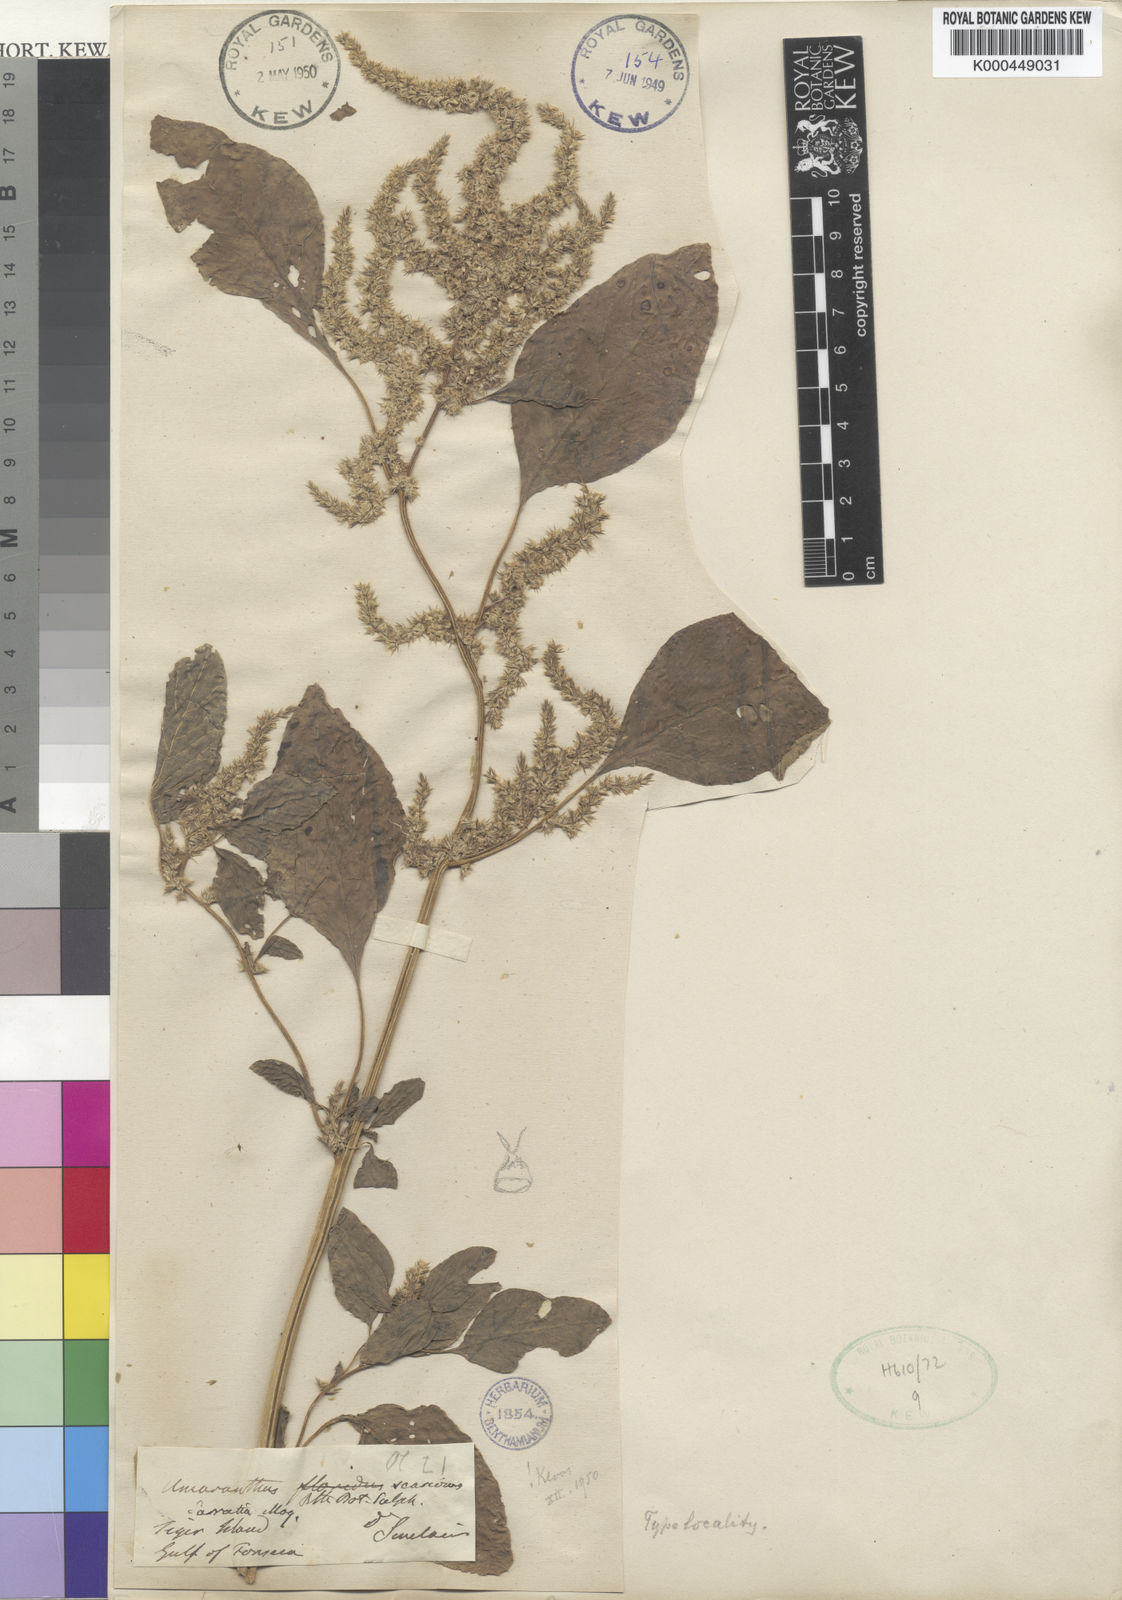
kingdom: Plantae
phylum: Tracheophyta
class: Magnoliopsida
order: Caryophyllales
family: Amaranthaceae
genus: Amaranthus
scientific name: Amaranthus scariosus
